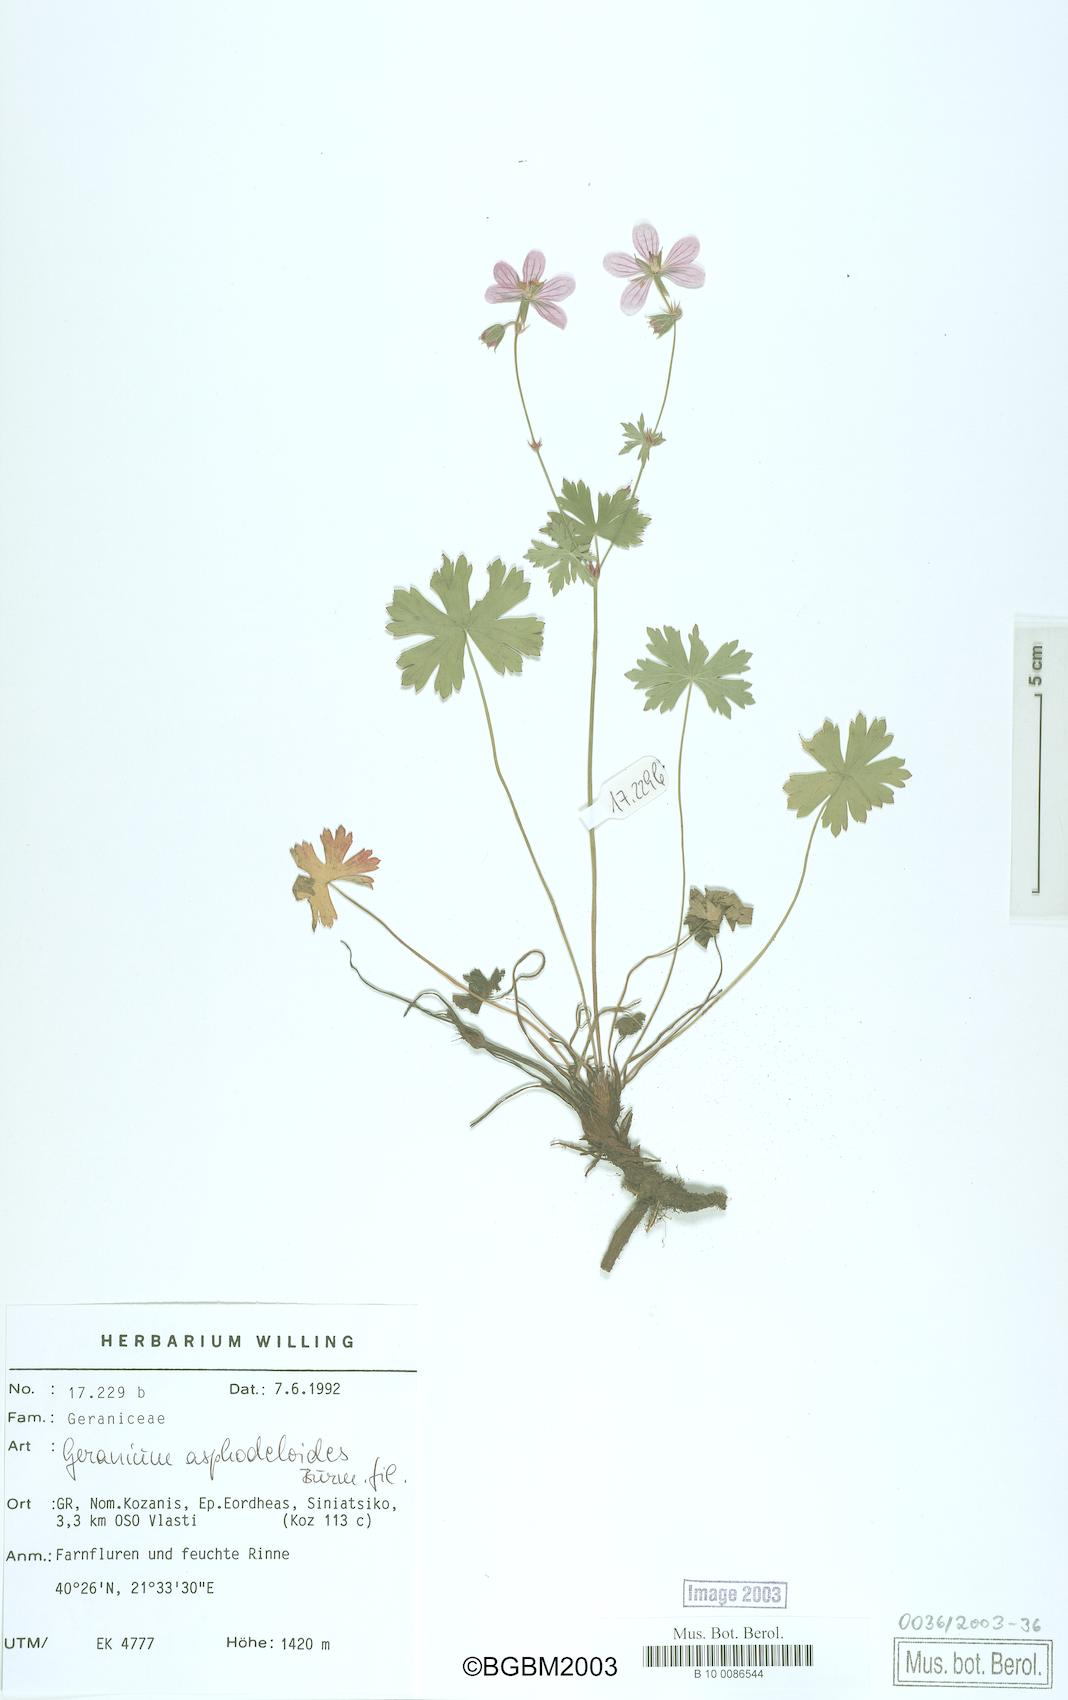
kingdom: Plantae
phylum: Tracheophyta
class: Magnoliopsida
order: Geraniales
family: Geraniaceae
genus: Geranium
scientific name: Geranium asphodeloides
